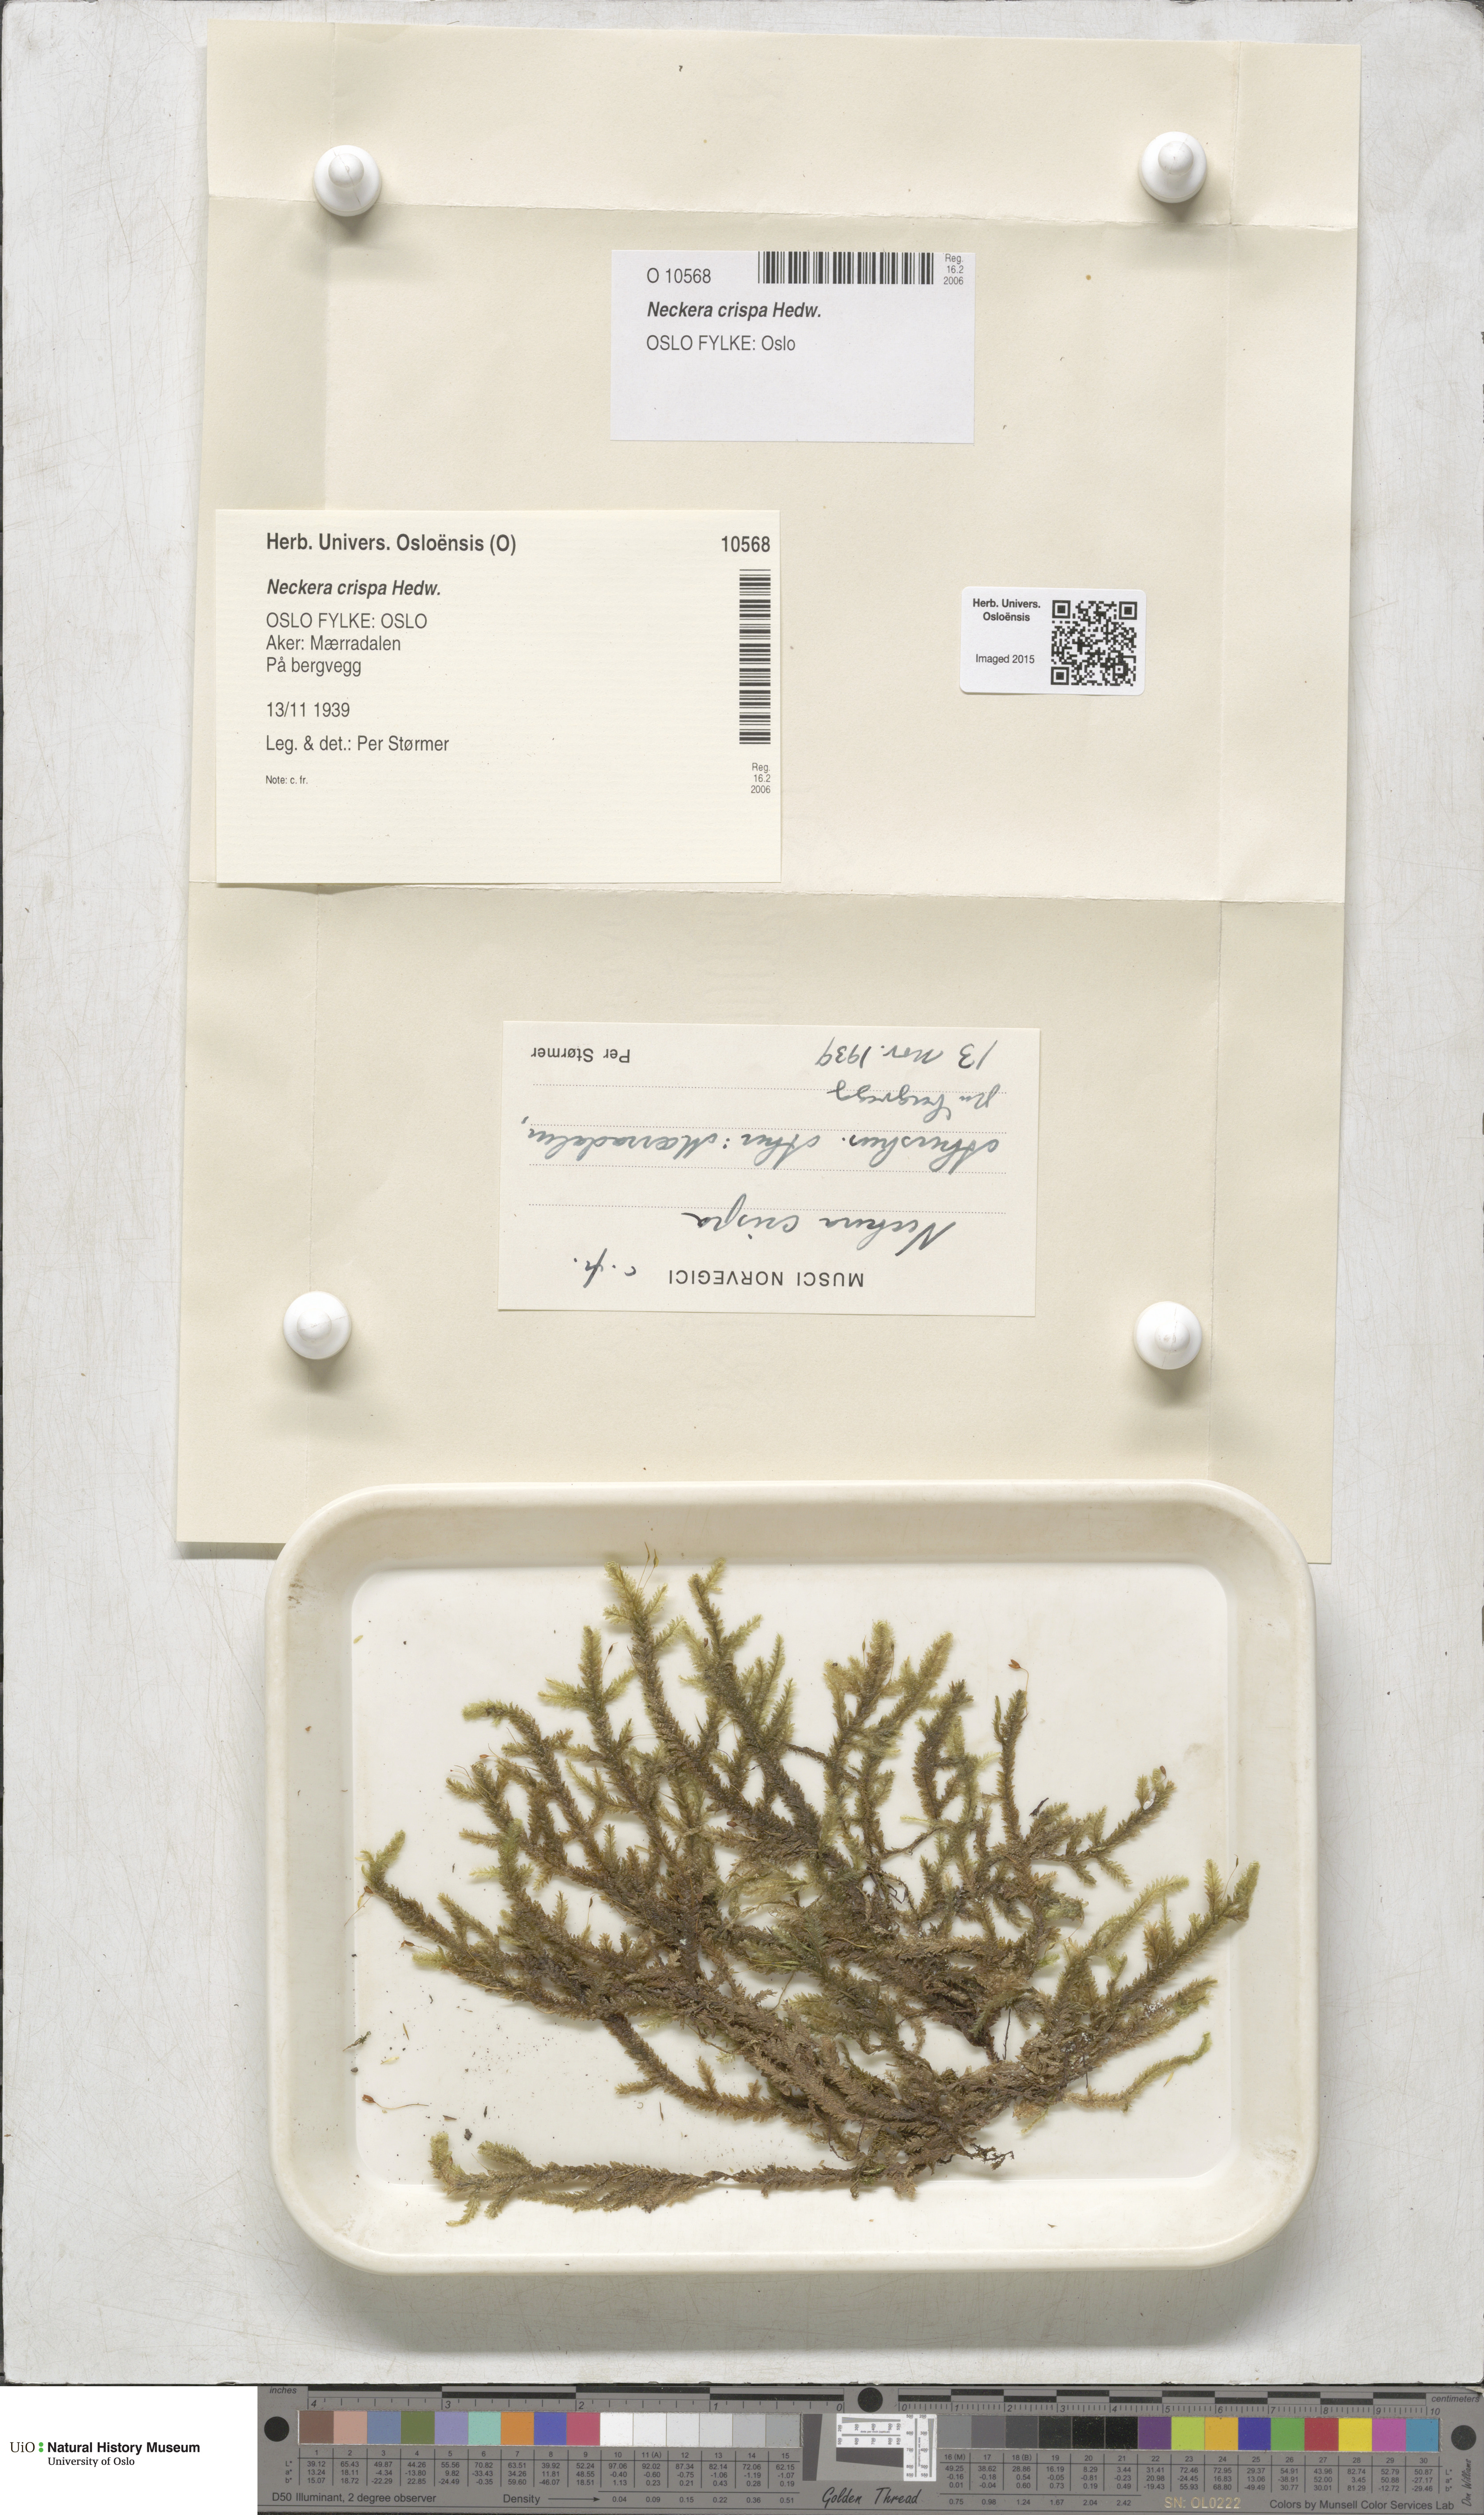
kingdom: Plantae
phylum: Bryophyta
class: Bryopsida
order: Hypnales
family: Neckeraceae
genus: Exsertotheca
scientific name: Exsertotheca crispa
